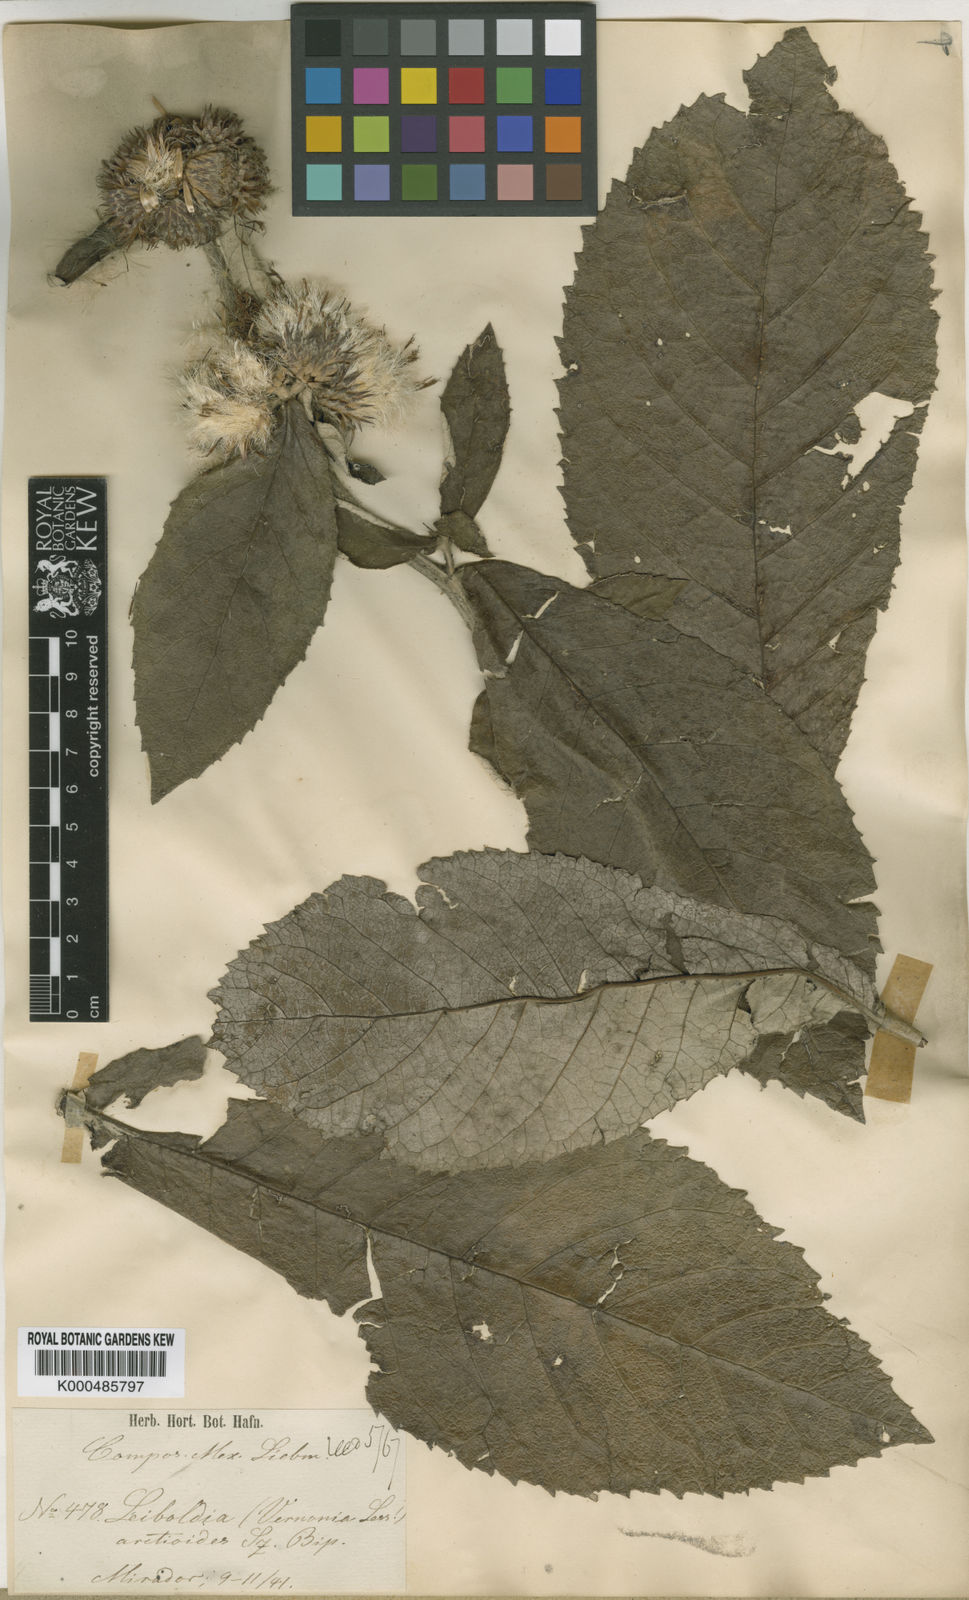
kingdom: Plantae
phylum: Tracheophyta
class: Magnoliopsida
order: Asterales
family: Asteraceae
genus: Dasyanthina
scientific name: Dasyanthina serrata
